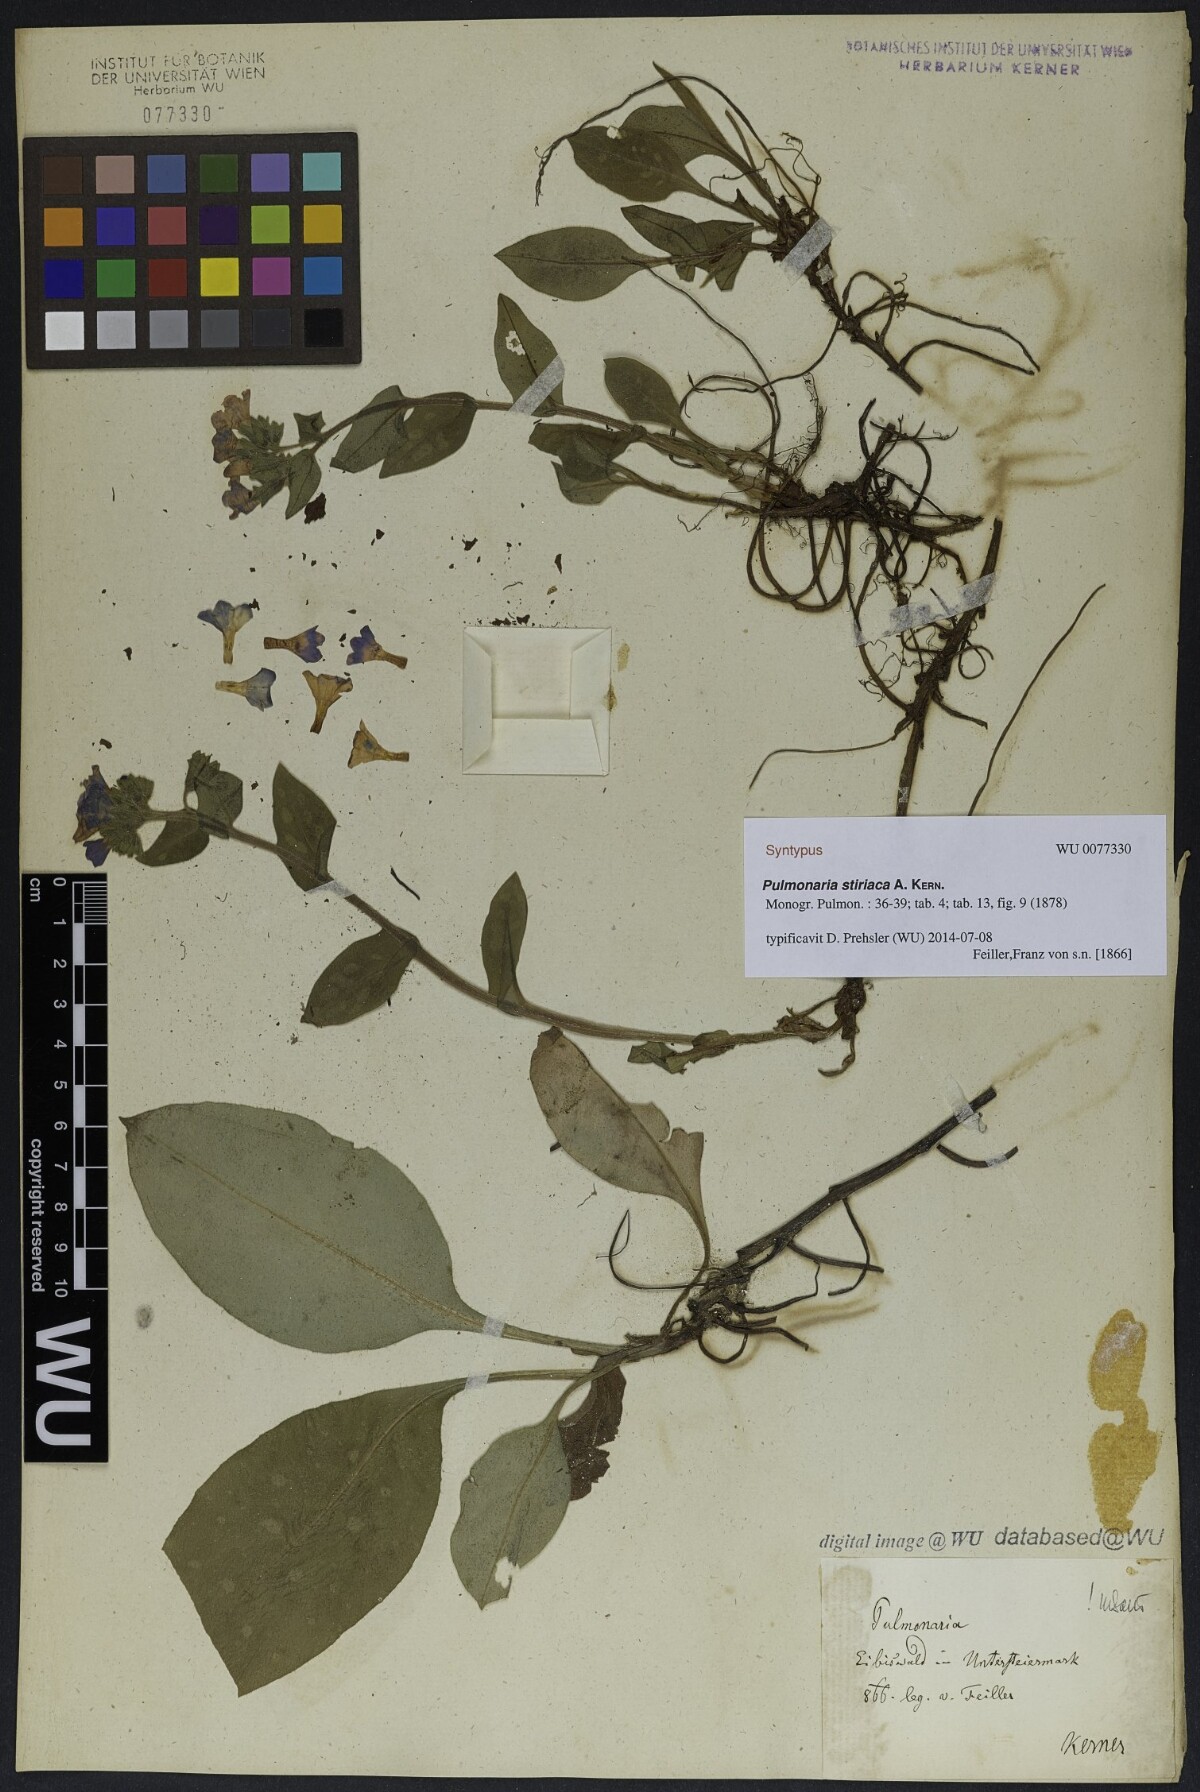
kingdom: Plantae
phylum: Tracheophyta
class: Magnoliopsida
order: Boraginales
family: Boraginaceae
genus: Pulmonaria
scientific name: Pulmonaria stiriaca
